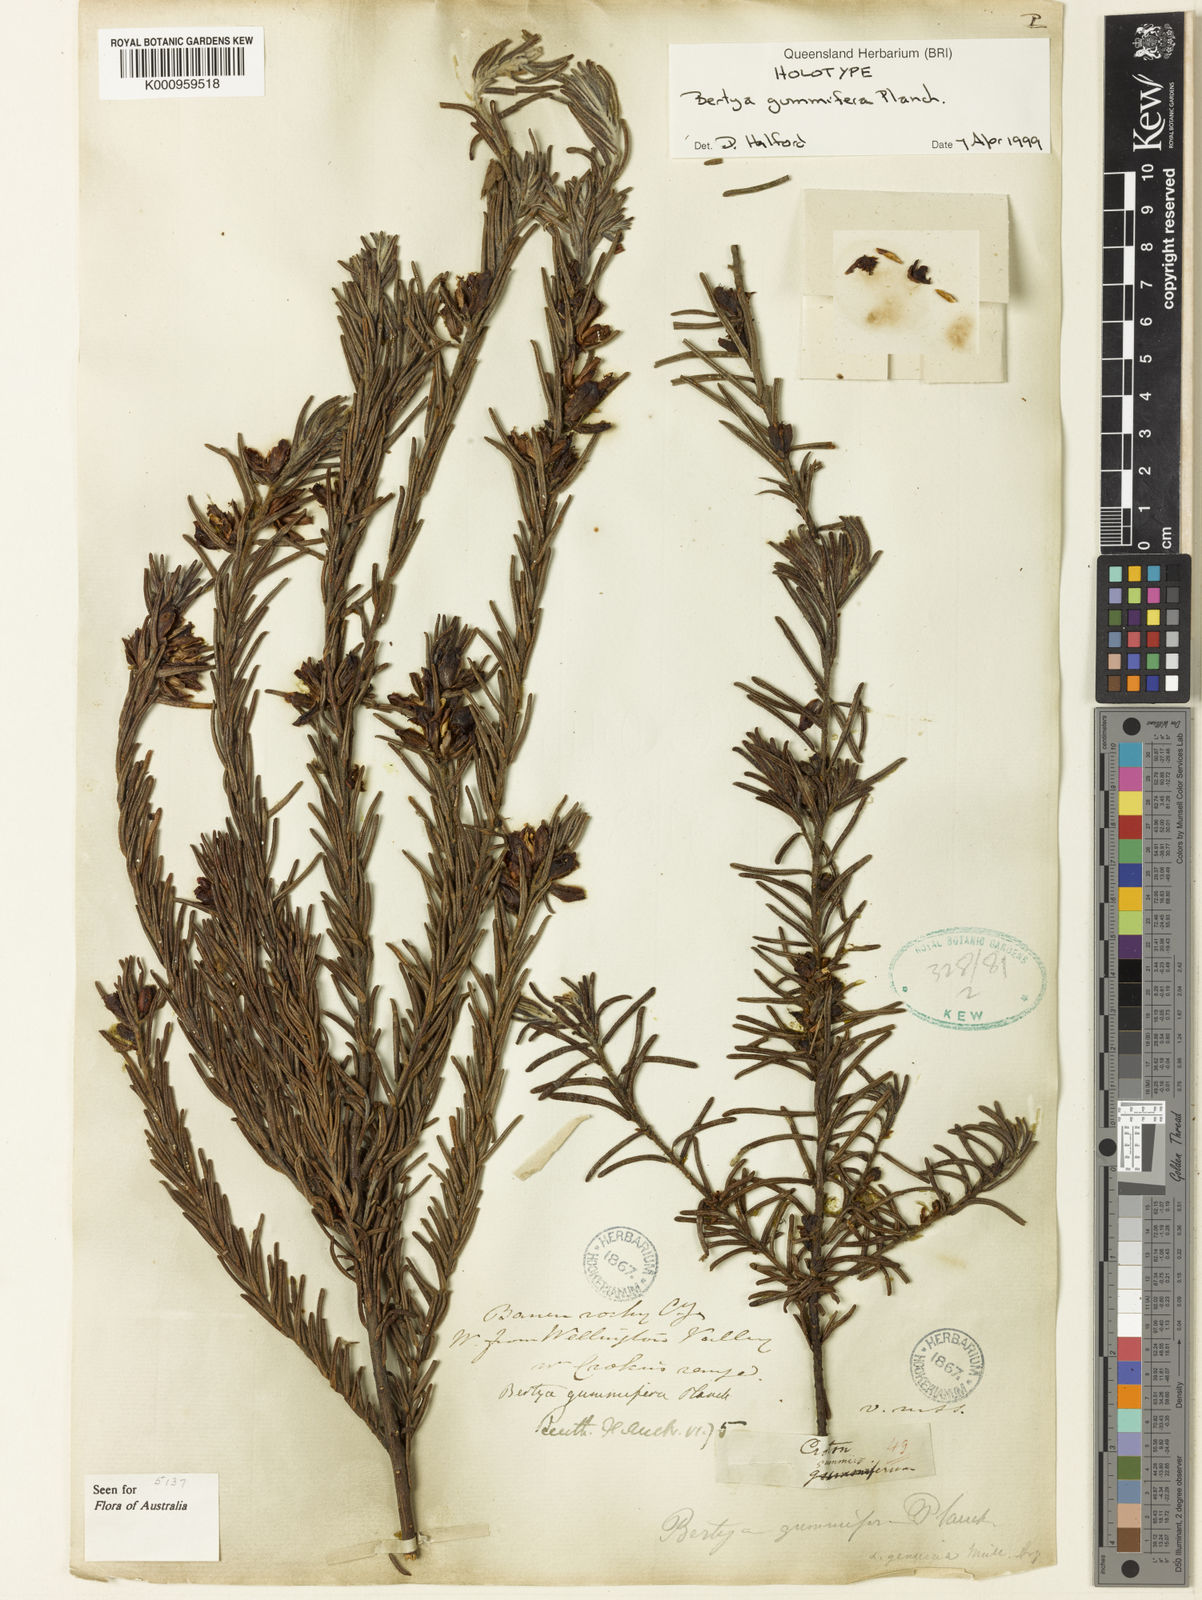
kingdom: Plantae
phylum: Tracheophyta
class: Magnoliopsida
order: Malpighiales
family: Euphorbiaceae
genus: Bertya
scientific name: Bertya gummifera
